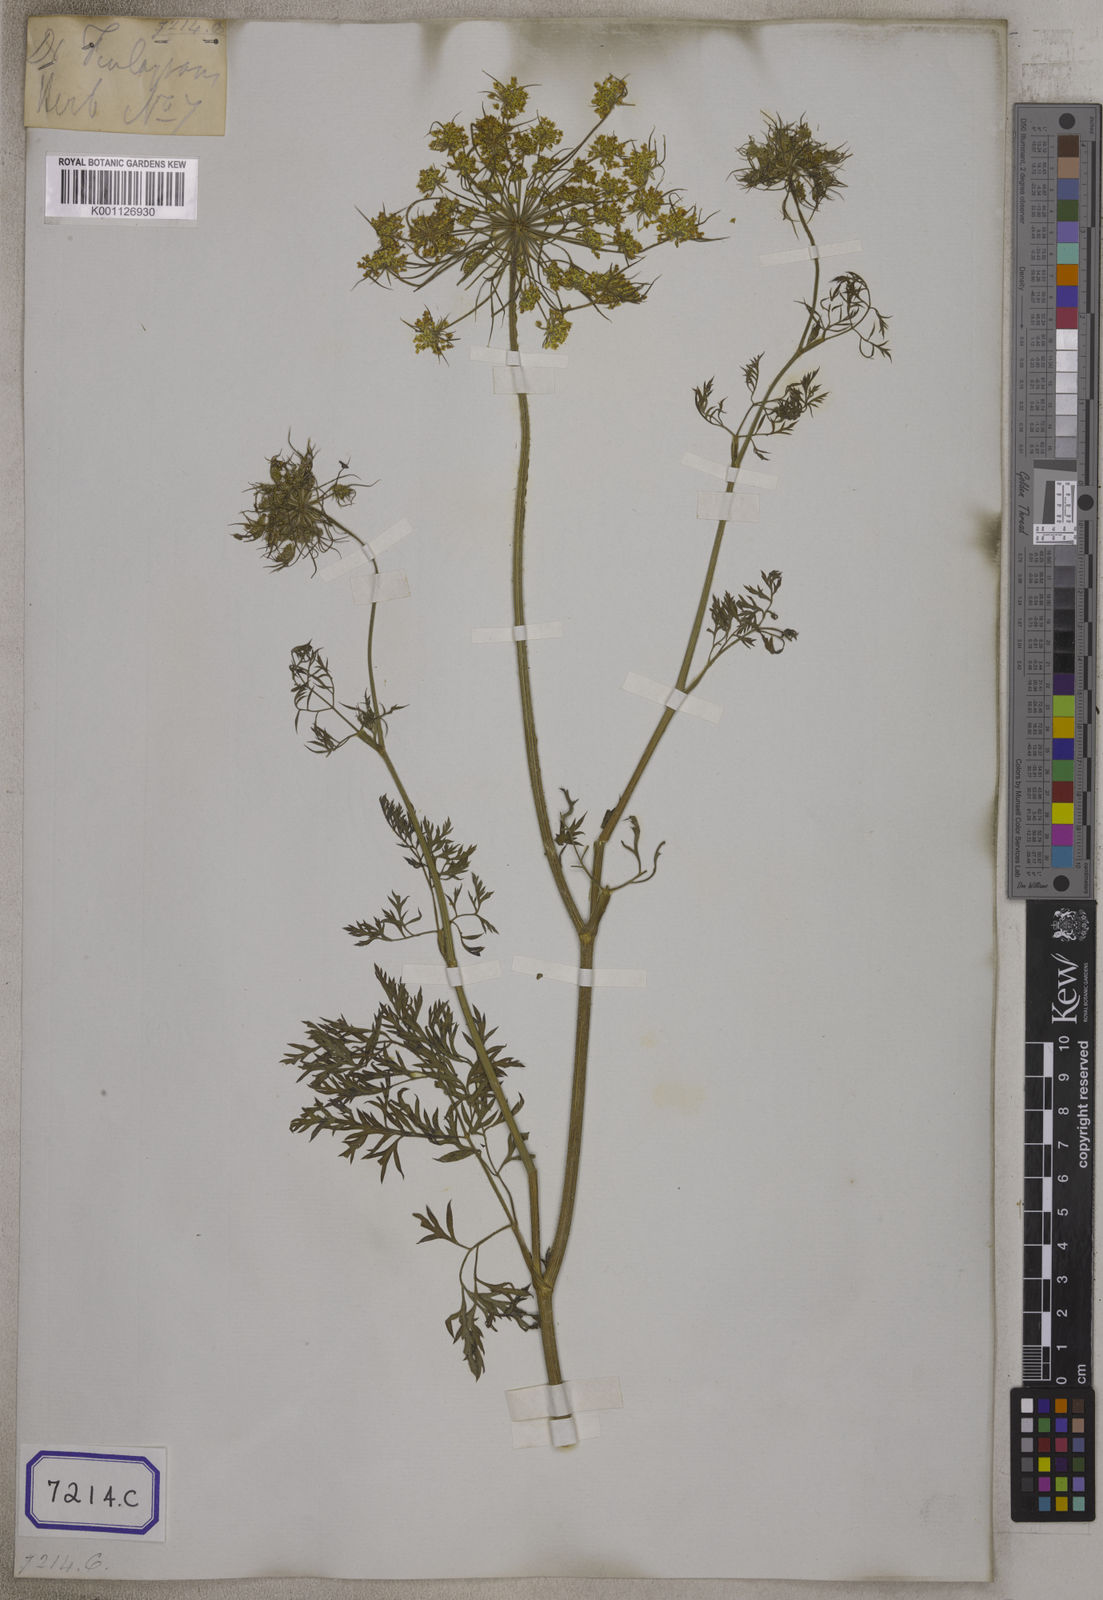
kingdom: Plantae
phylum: Tracheophyta
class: Magnoliopsida
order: Apiales
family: Apiaceae
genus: Daucus
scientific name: Daucus carota
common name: Wild carrot
